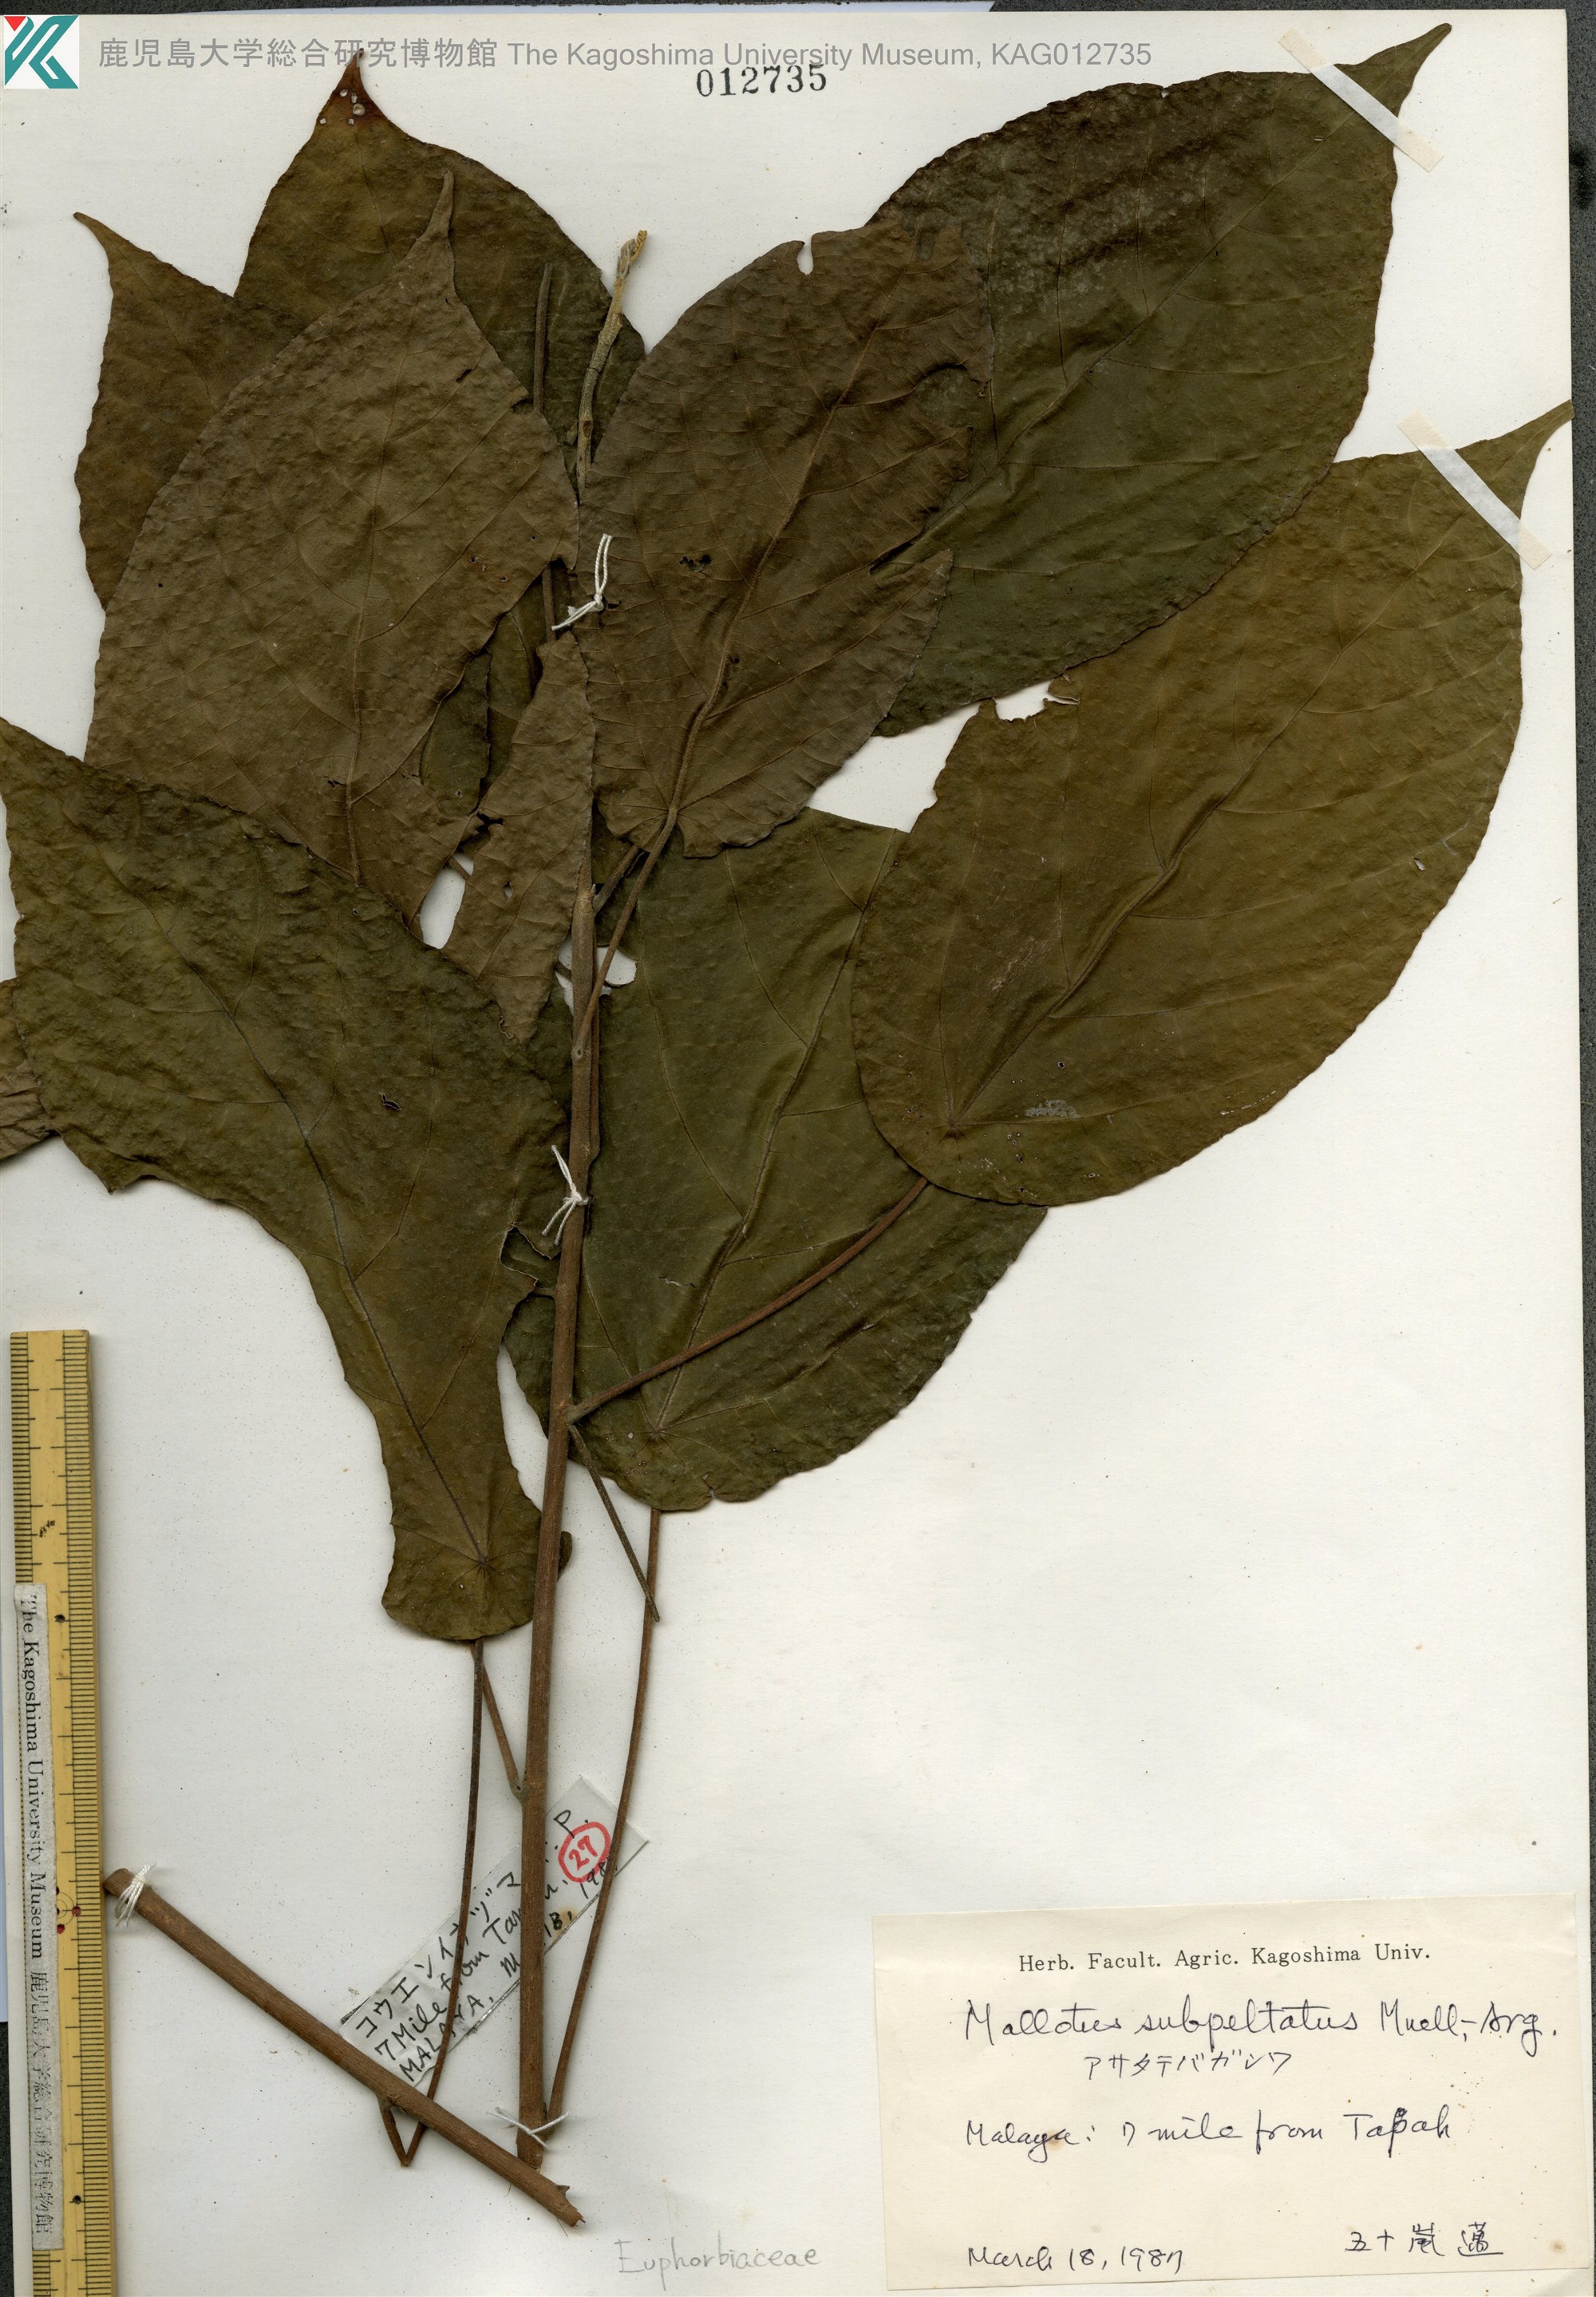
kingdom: Plantae
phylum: Tracheophyta
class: Magnoliopsida
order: Malpighiales
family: Euphorbiaceae
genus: Hancea
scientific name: Hancea subpeltata
